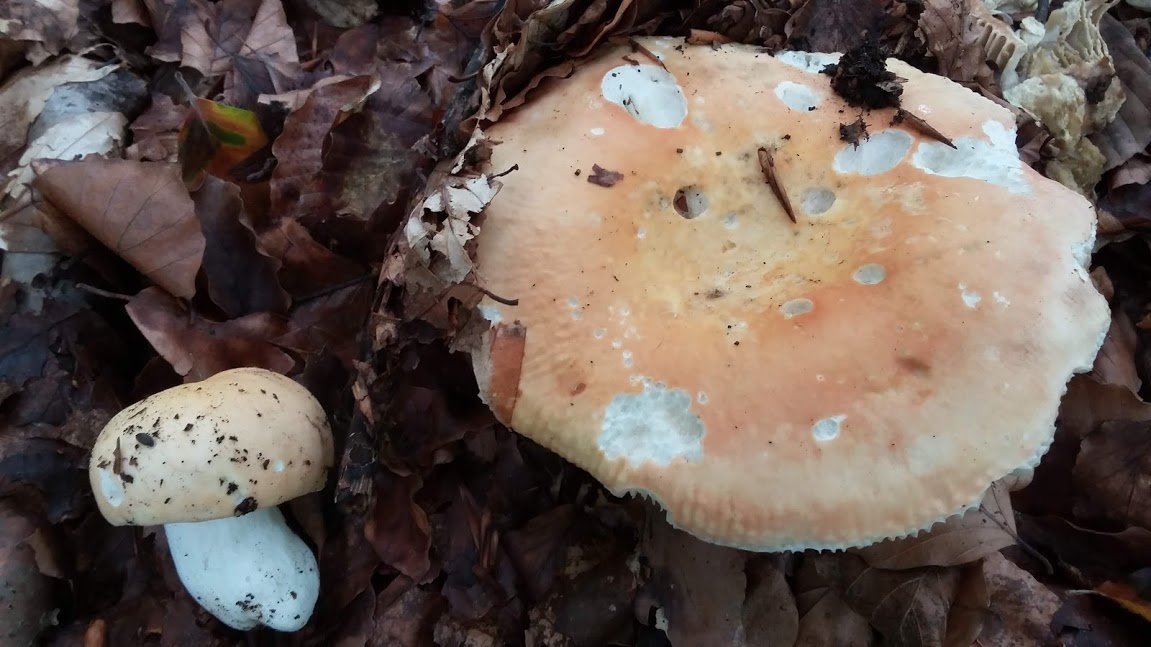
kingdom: Fungi
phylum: Basidiomycota
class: Agaricomycetes
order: Russulales
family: Russulaceae
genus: Russula
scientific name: Russula rosea
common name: fastkødet skørhat
